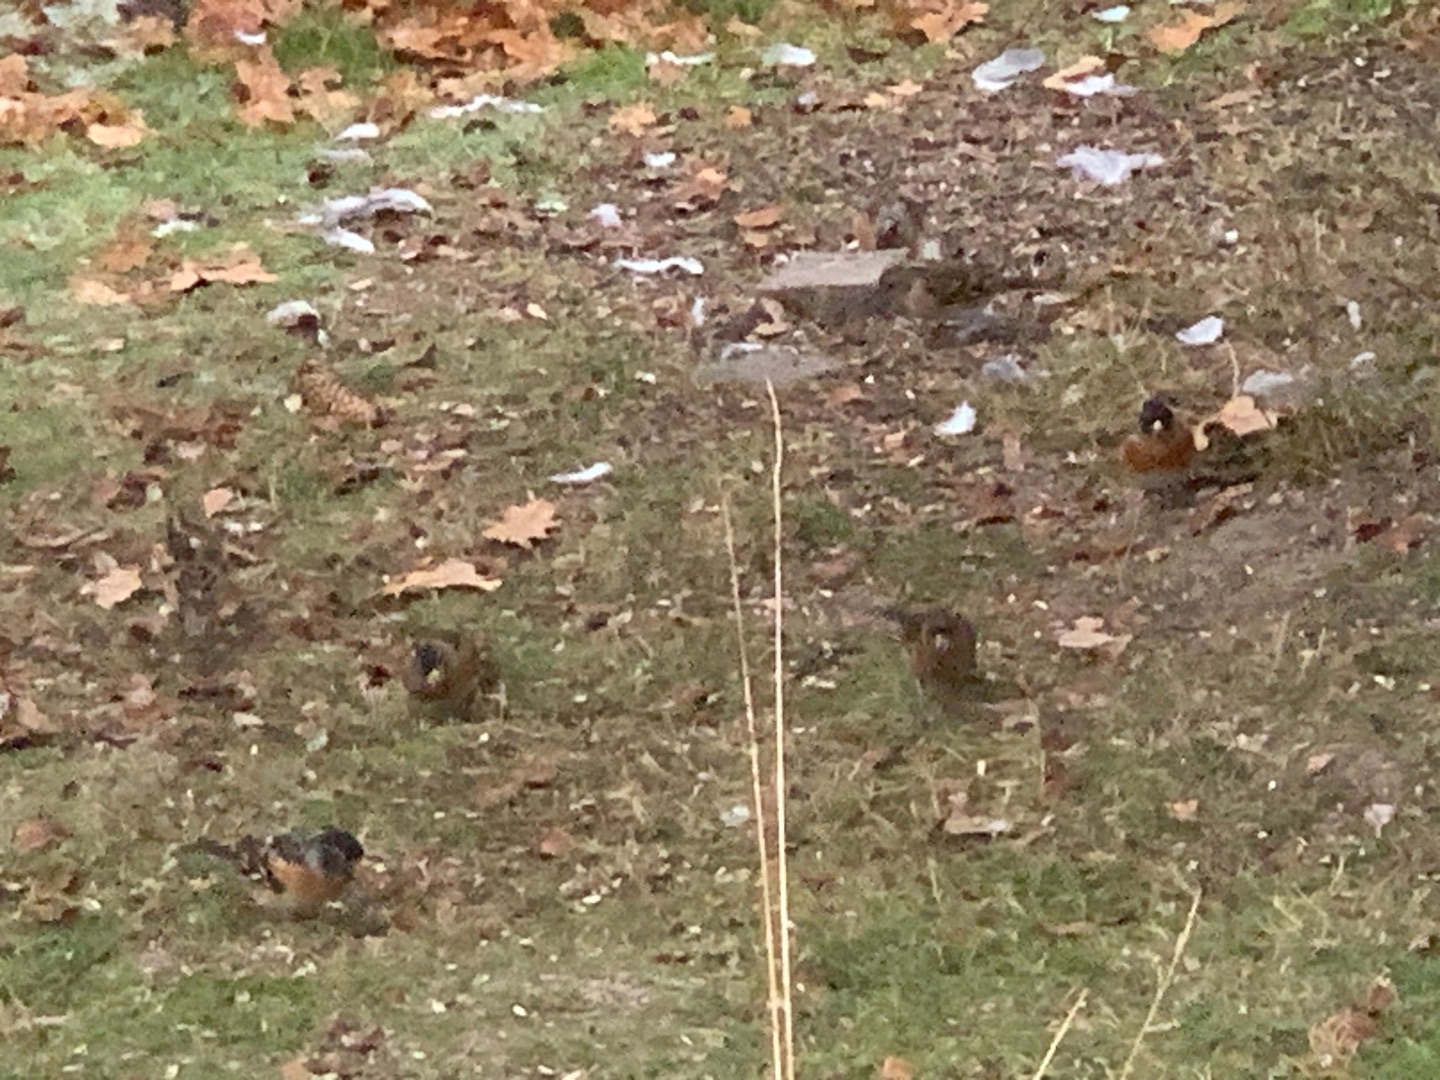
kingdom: Animalia
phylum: Chordata
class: Aves
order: Passeriformes
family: Fringillidae
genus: Fringilla
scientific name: Fringilla montifringilla
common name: Kvækerfinke
